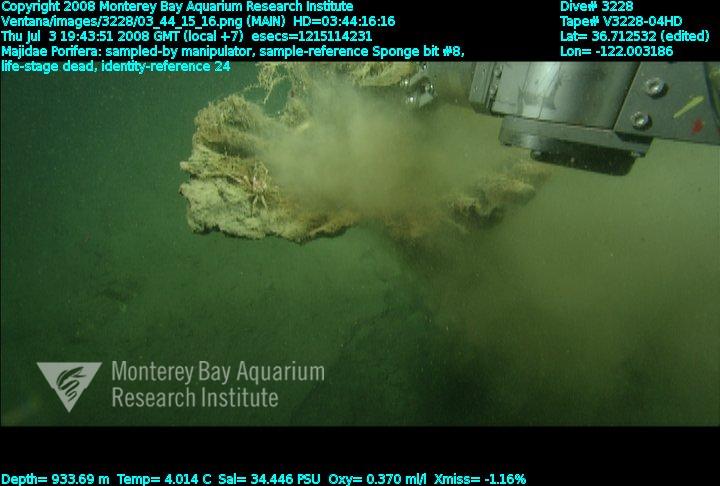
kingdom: Animalia
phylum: Porifera
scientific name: Porifera
